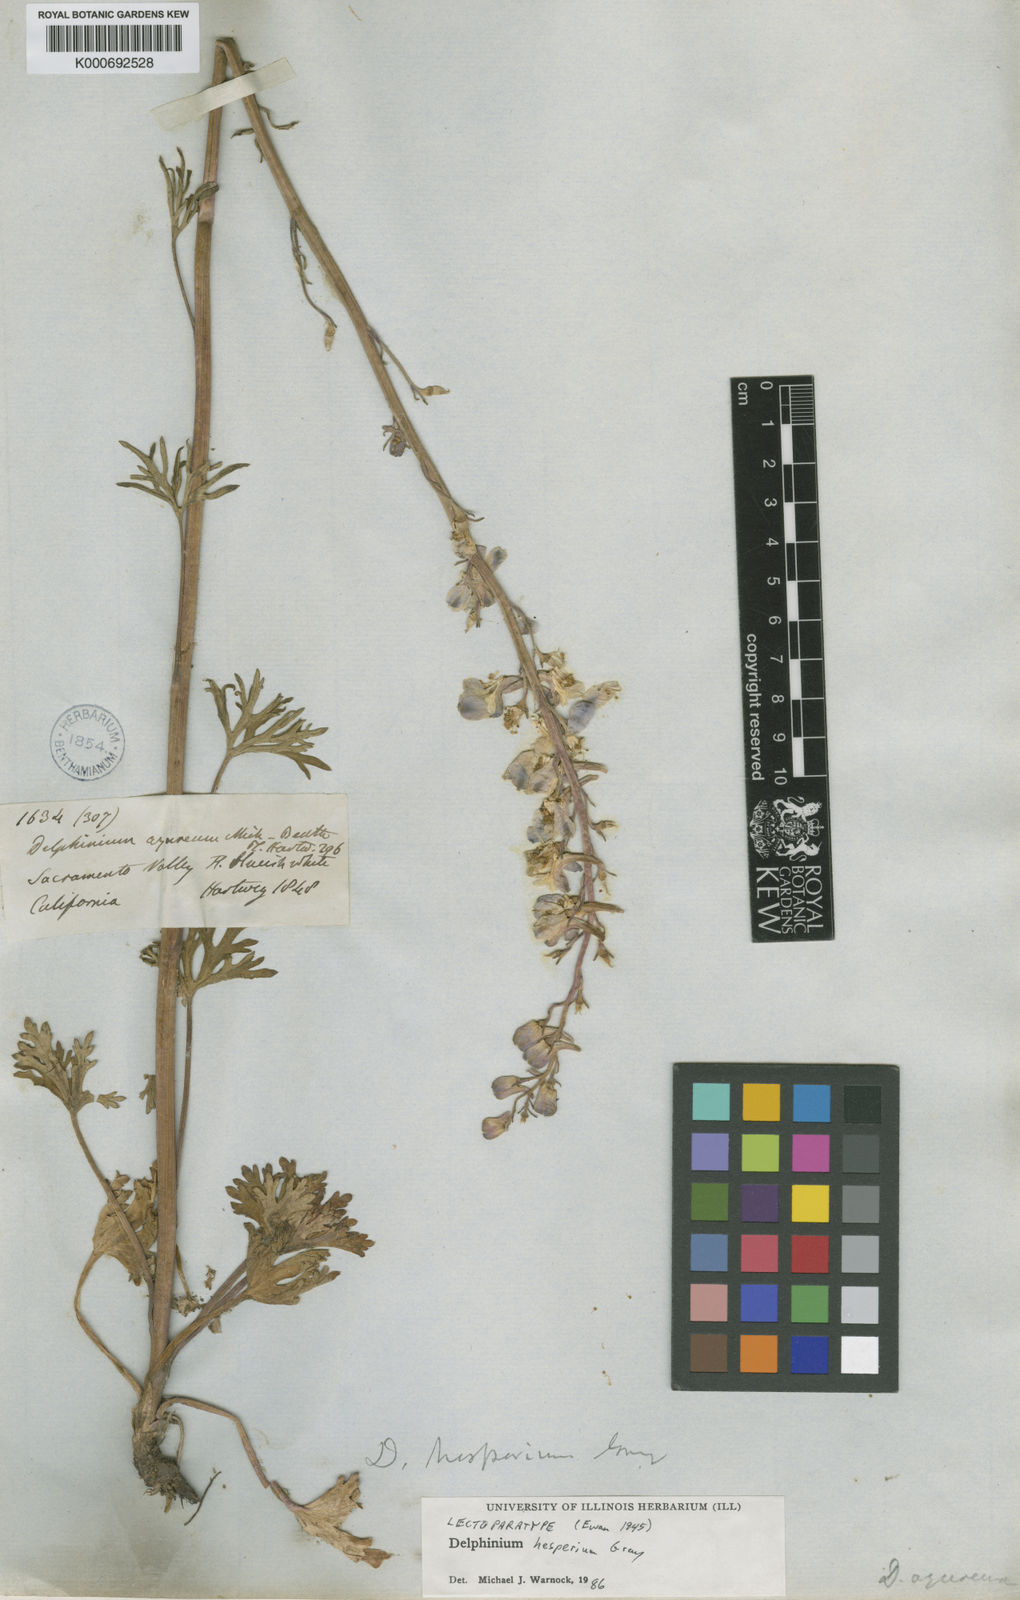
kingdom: Plantae
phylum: Tracheophyta
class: Magnoliopsida
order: Ranunculales
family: Ranunculaceae
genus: Delphinium
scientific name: Delphinium hesperium
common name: Western larkspur
